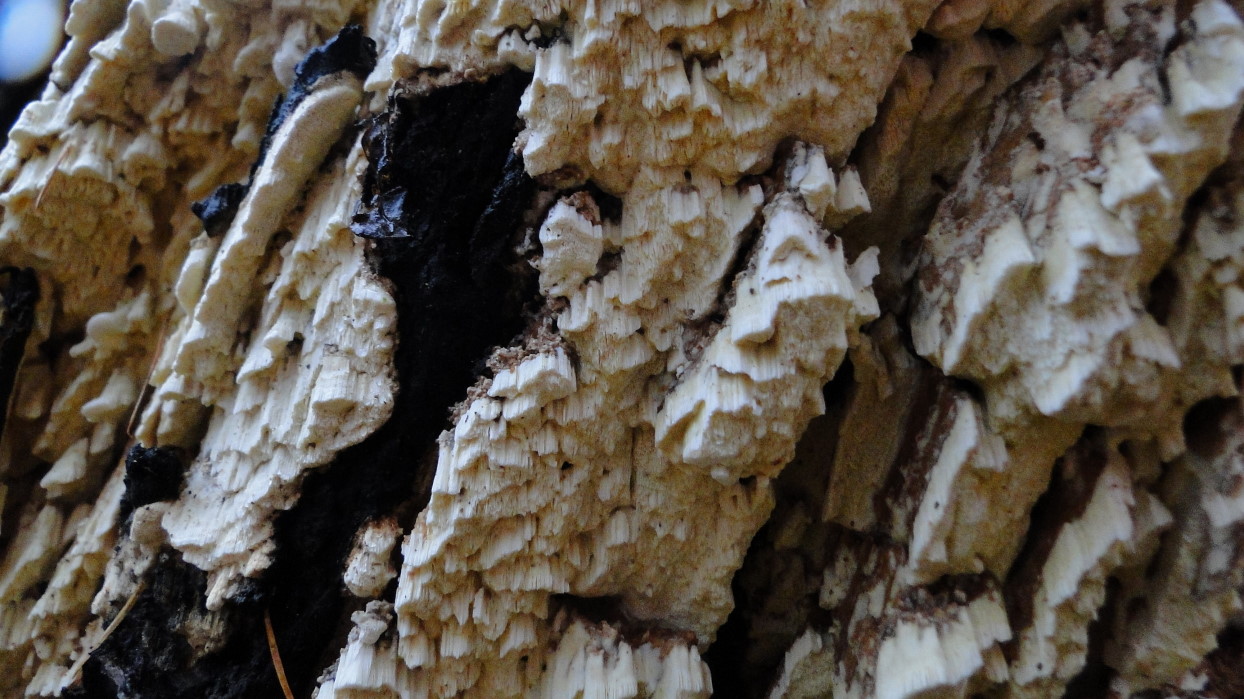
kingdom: Fungi
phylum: Basidiomycota
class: Agaricomycetes
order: Polyporales
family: Fomitopsidaceae
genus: Daedalea
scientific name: Daedalea xantha
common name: gul sejporesvamp
